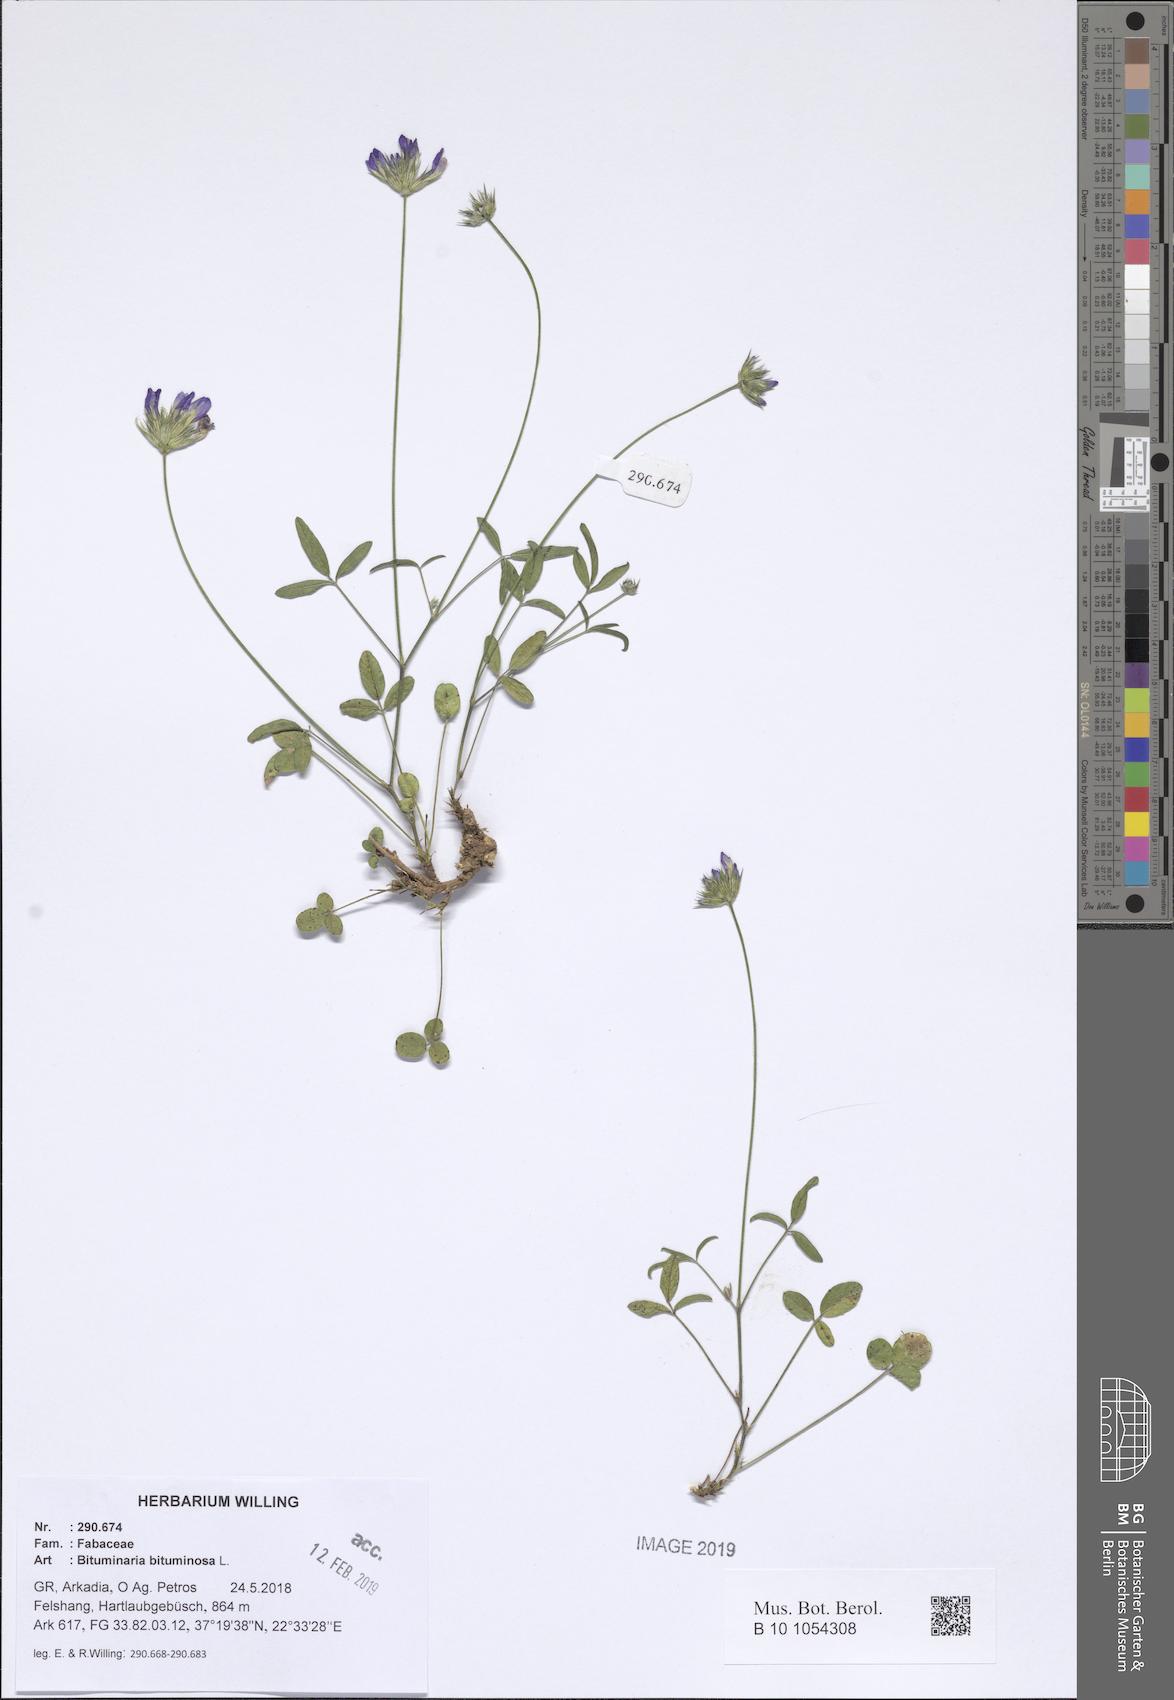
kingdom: Plantae
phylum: Tracheophyta
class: Magnoliopsida
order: Fabales
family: Fabaceae
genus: Bituminaria
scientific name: Bituminaria bituminosa
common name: Arabian pea
